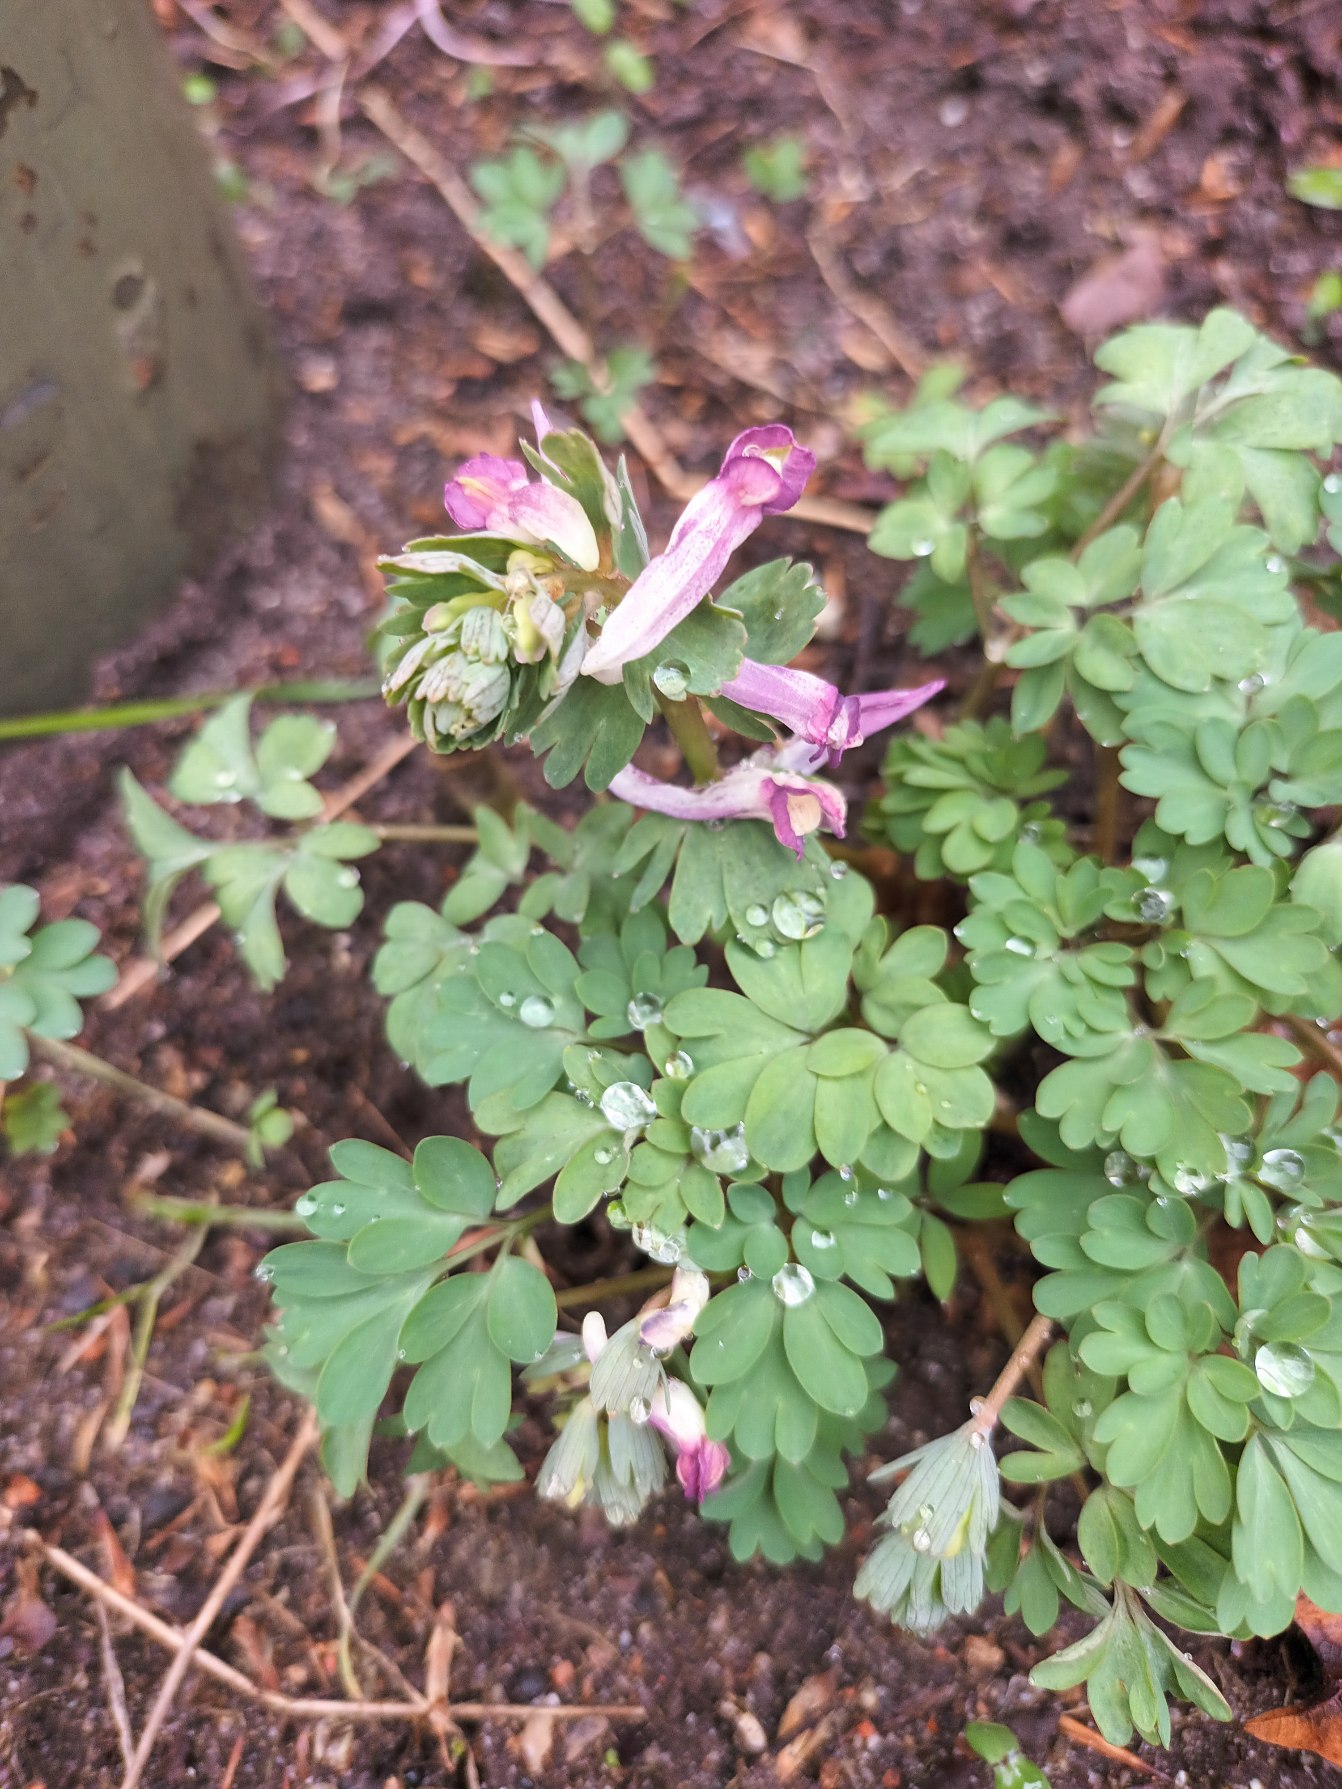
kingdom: Plantae
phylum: Tracheophyta
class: Magnoliopsida
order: Ranunculales
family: Papaveraceae
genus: Corydalis
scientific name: Corydalis solida
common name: Langstilket lærkespore
